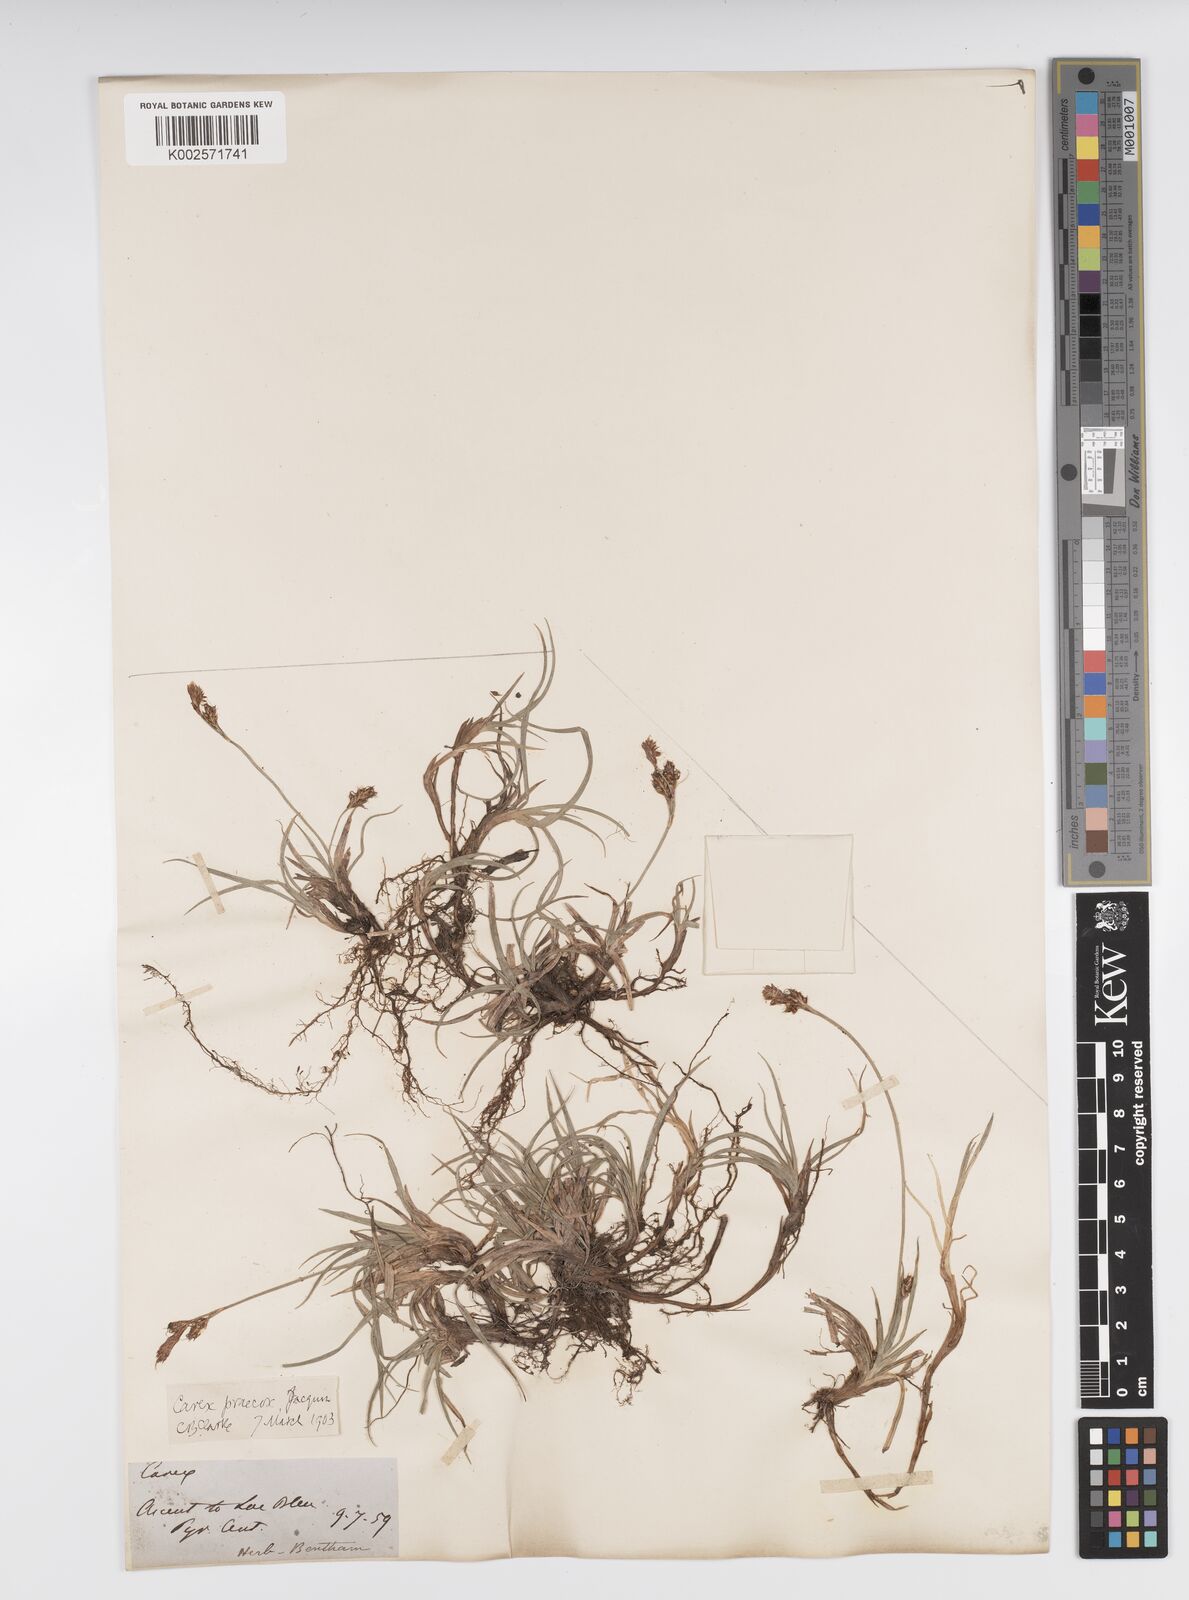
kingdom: Plantae
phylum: Tracheophyta
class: Liliopsida
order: Poales
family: Cyperaceae
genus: Carex
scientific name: Carex caryophyllea
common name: Spring sedge
